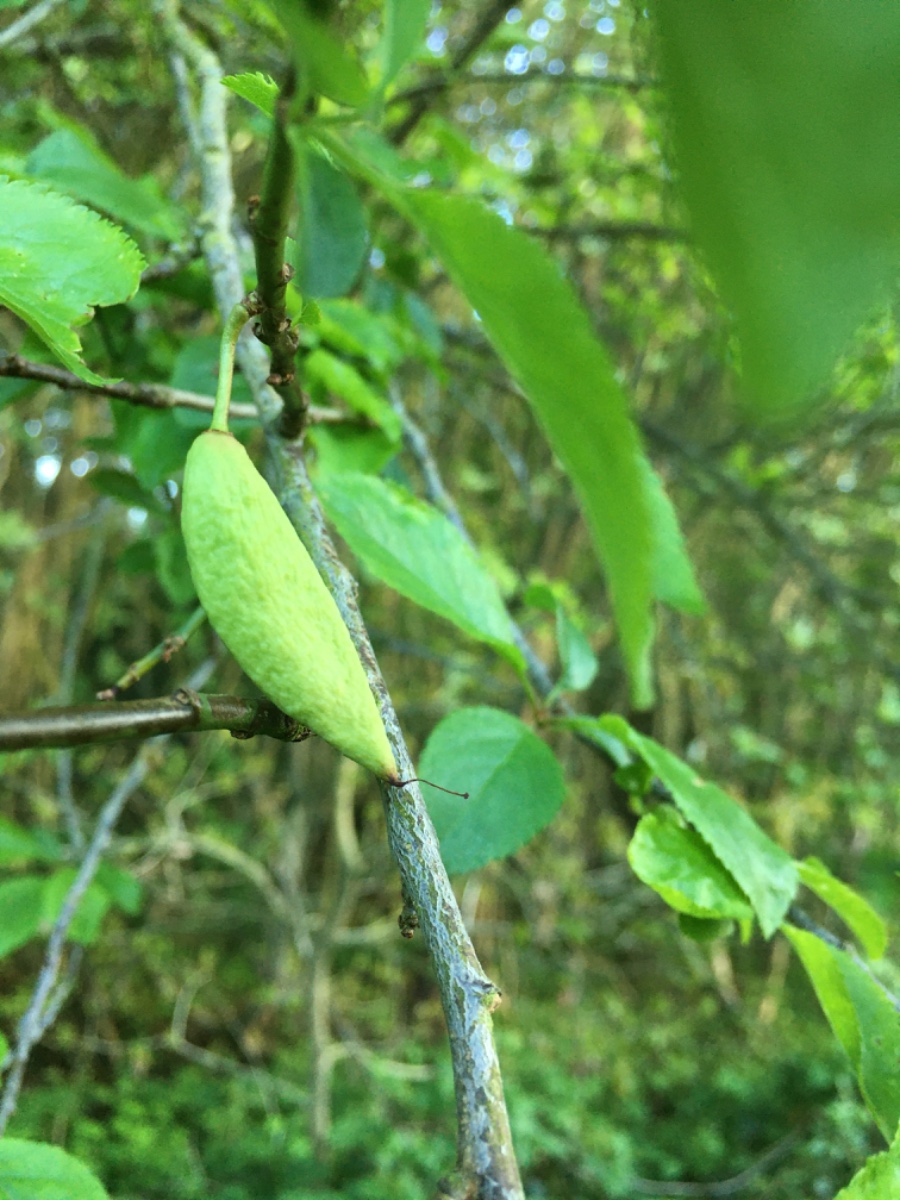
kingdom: Fungi
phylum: Ascomycota
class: Taphrinomycetes
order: Taphrinales
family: Taphrinaceae
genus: Taphrina
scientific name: Taphrina pruni
